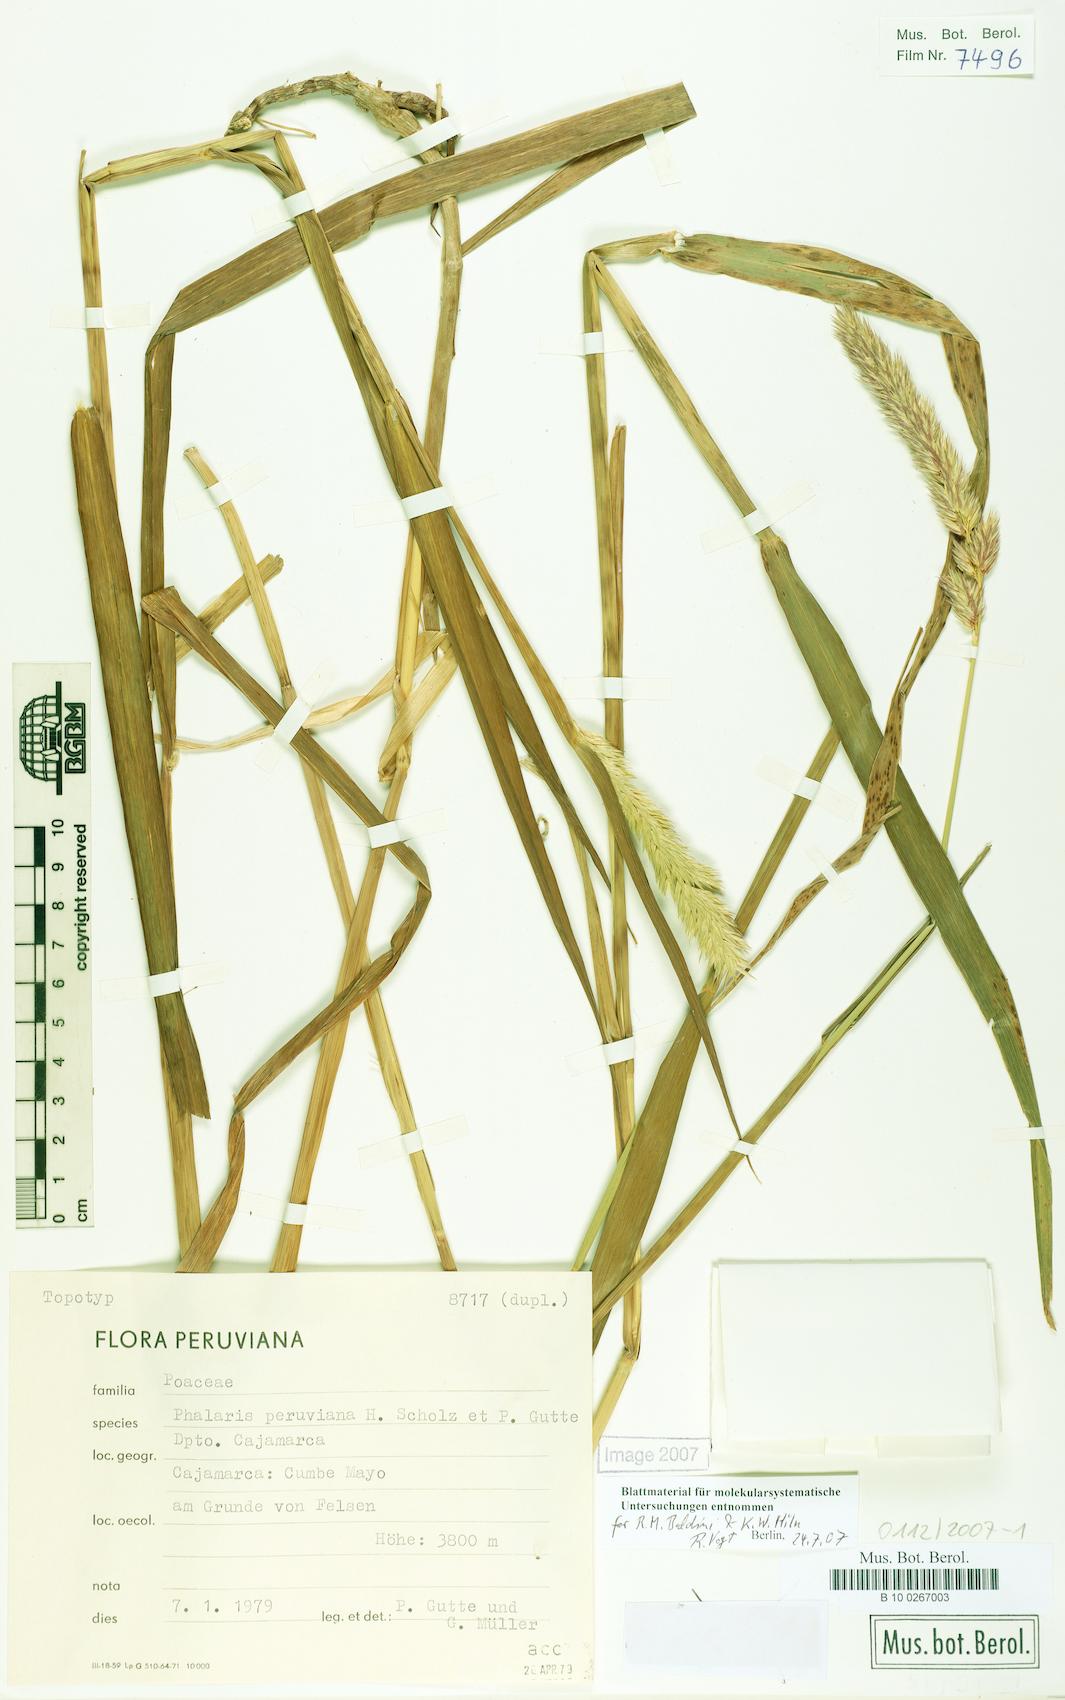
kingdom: Plantae
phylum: Tracheophyta
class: Liliopsida
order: Poales
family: Poaceae
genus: Phalaris
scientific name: Phalaris peruviana
